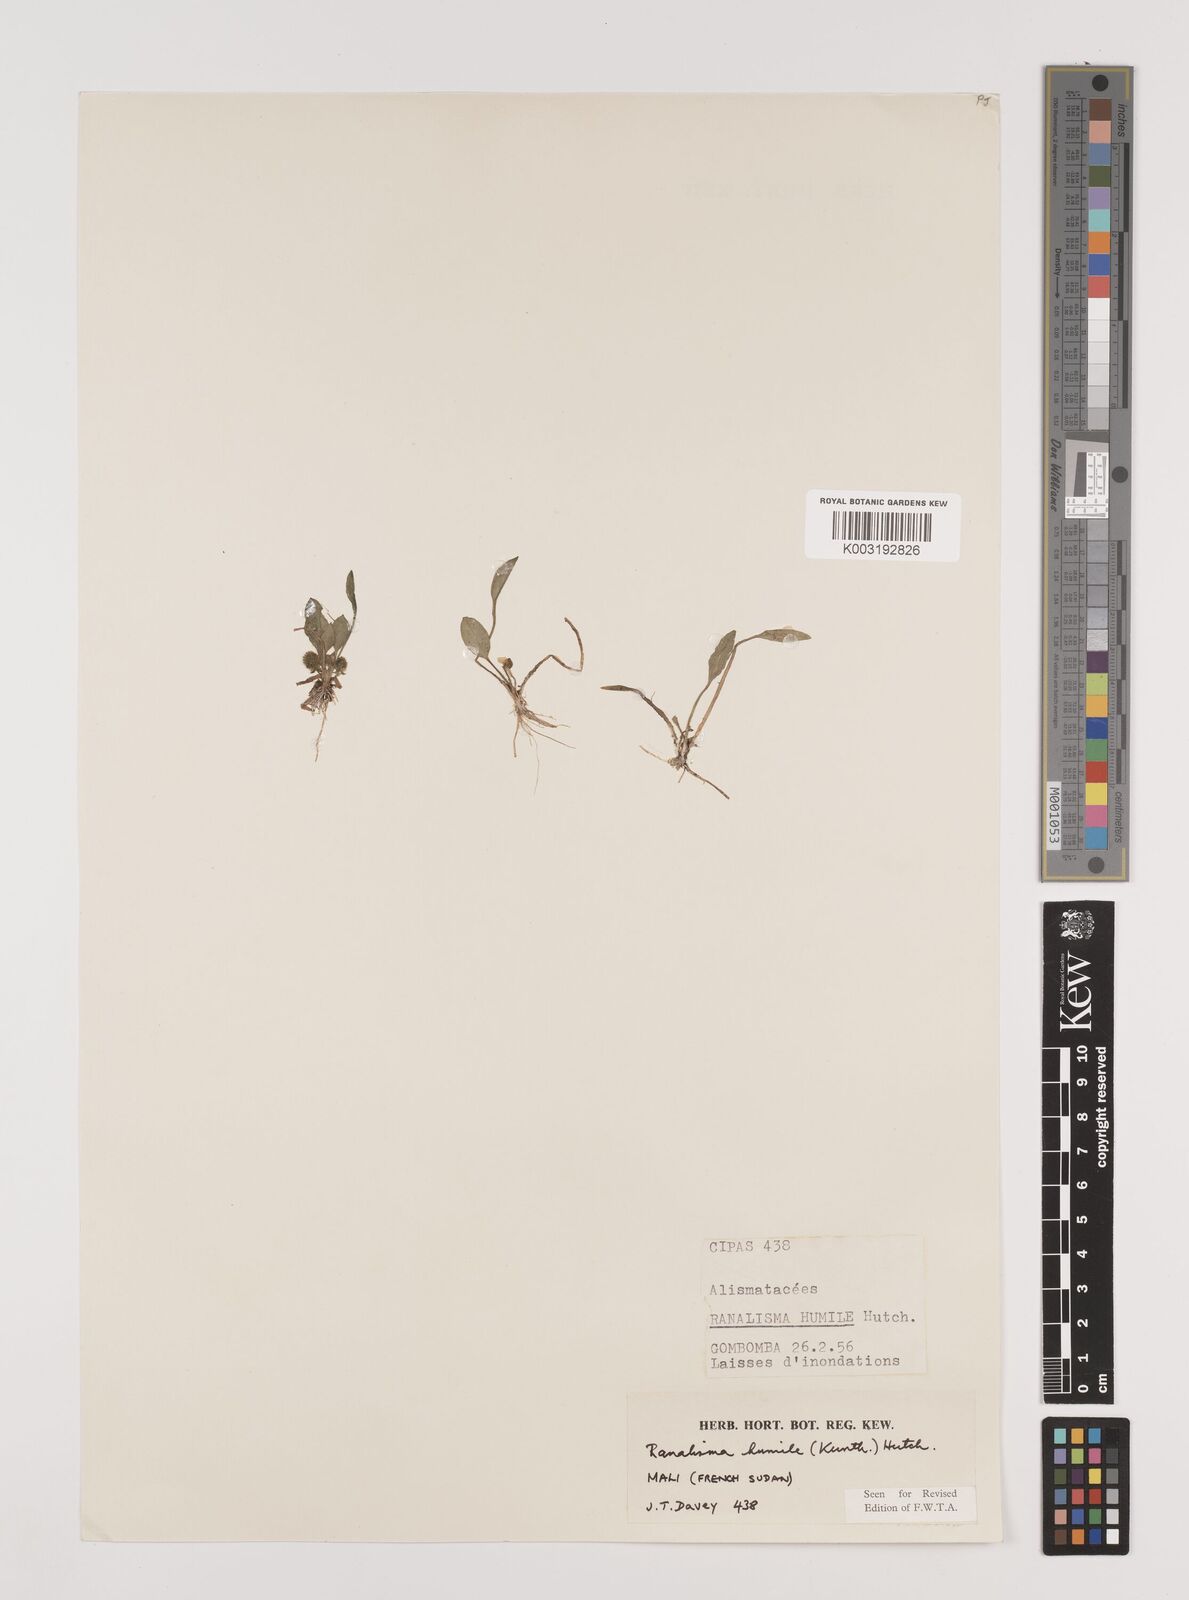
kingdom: Plantae
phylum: Tracheophyta
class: Liliopsida
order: Alismatales
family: Alismataceae
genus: Ranalisma
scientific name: Ranalisma humile
